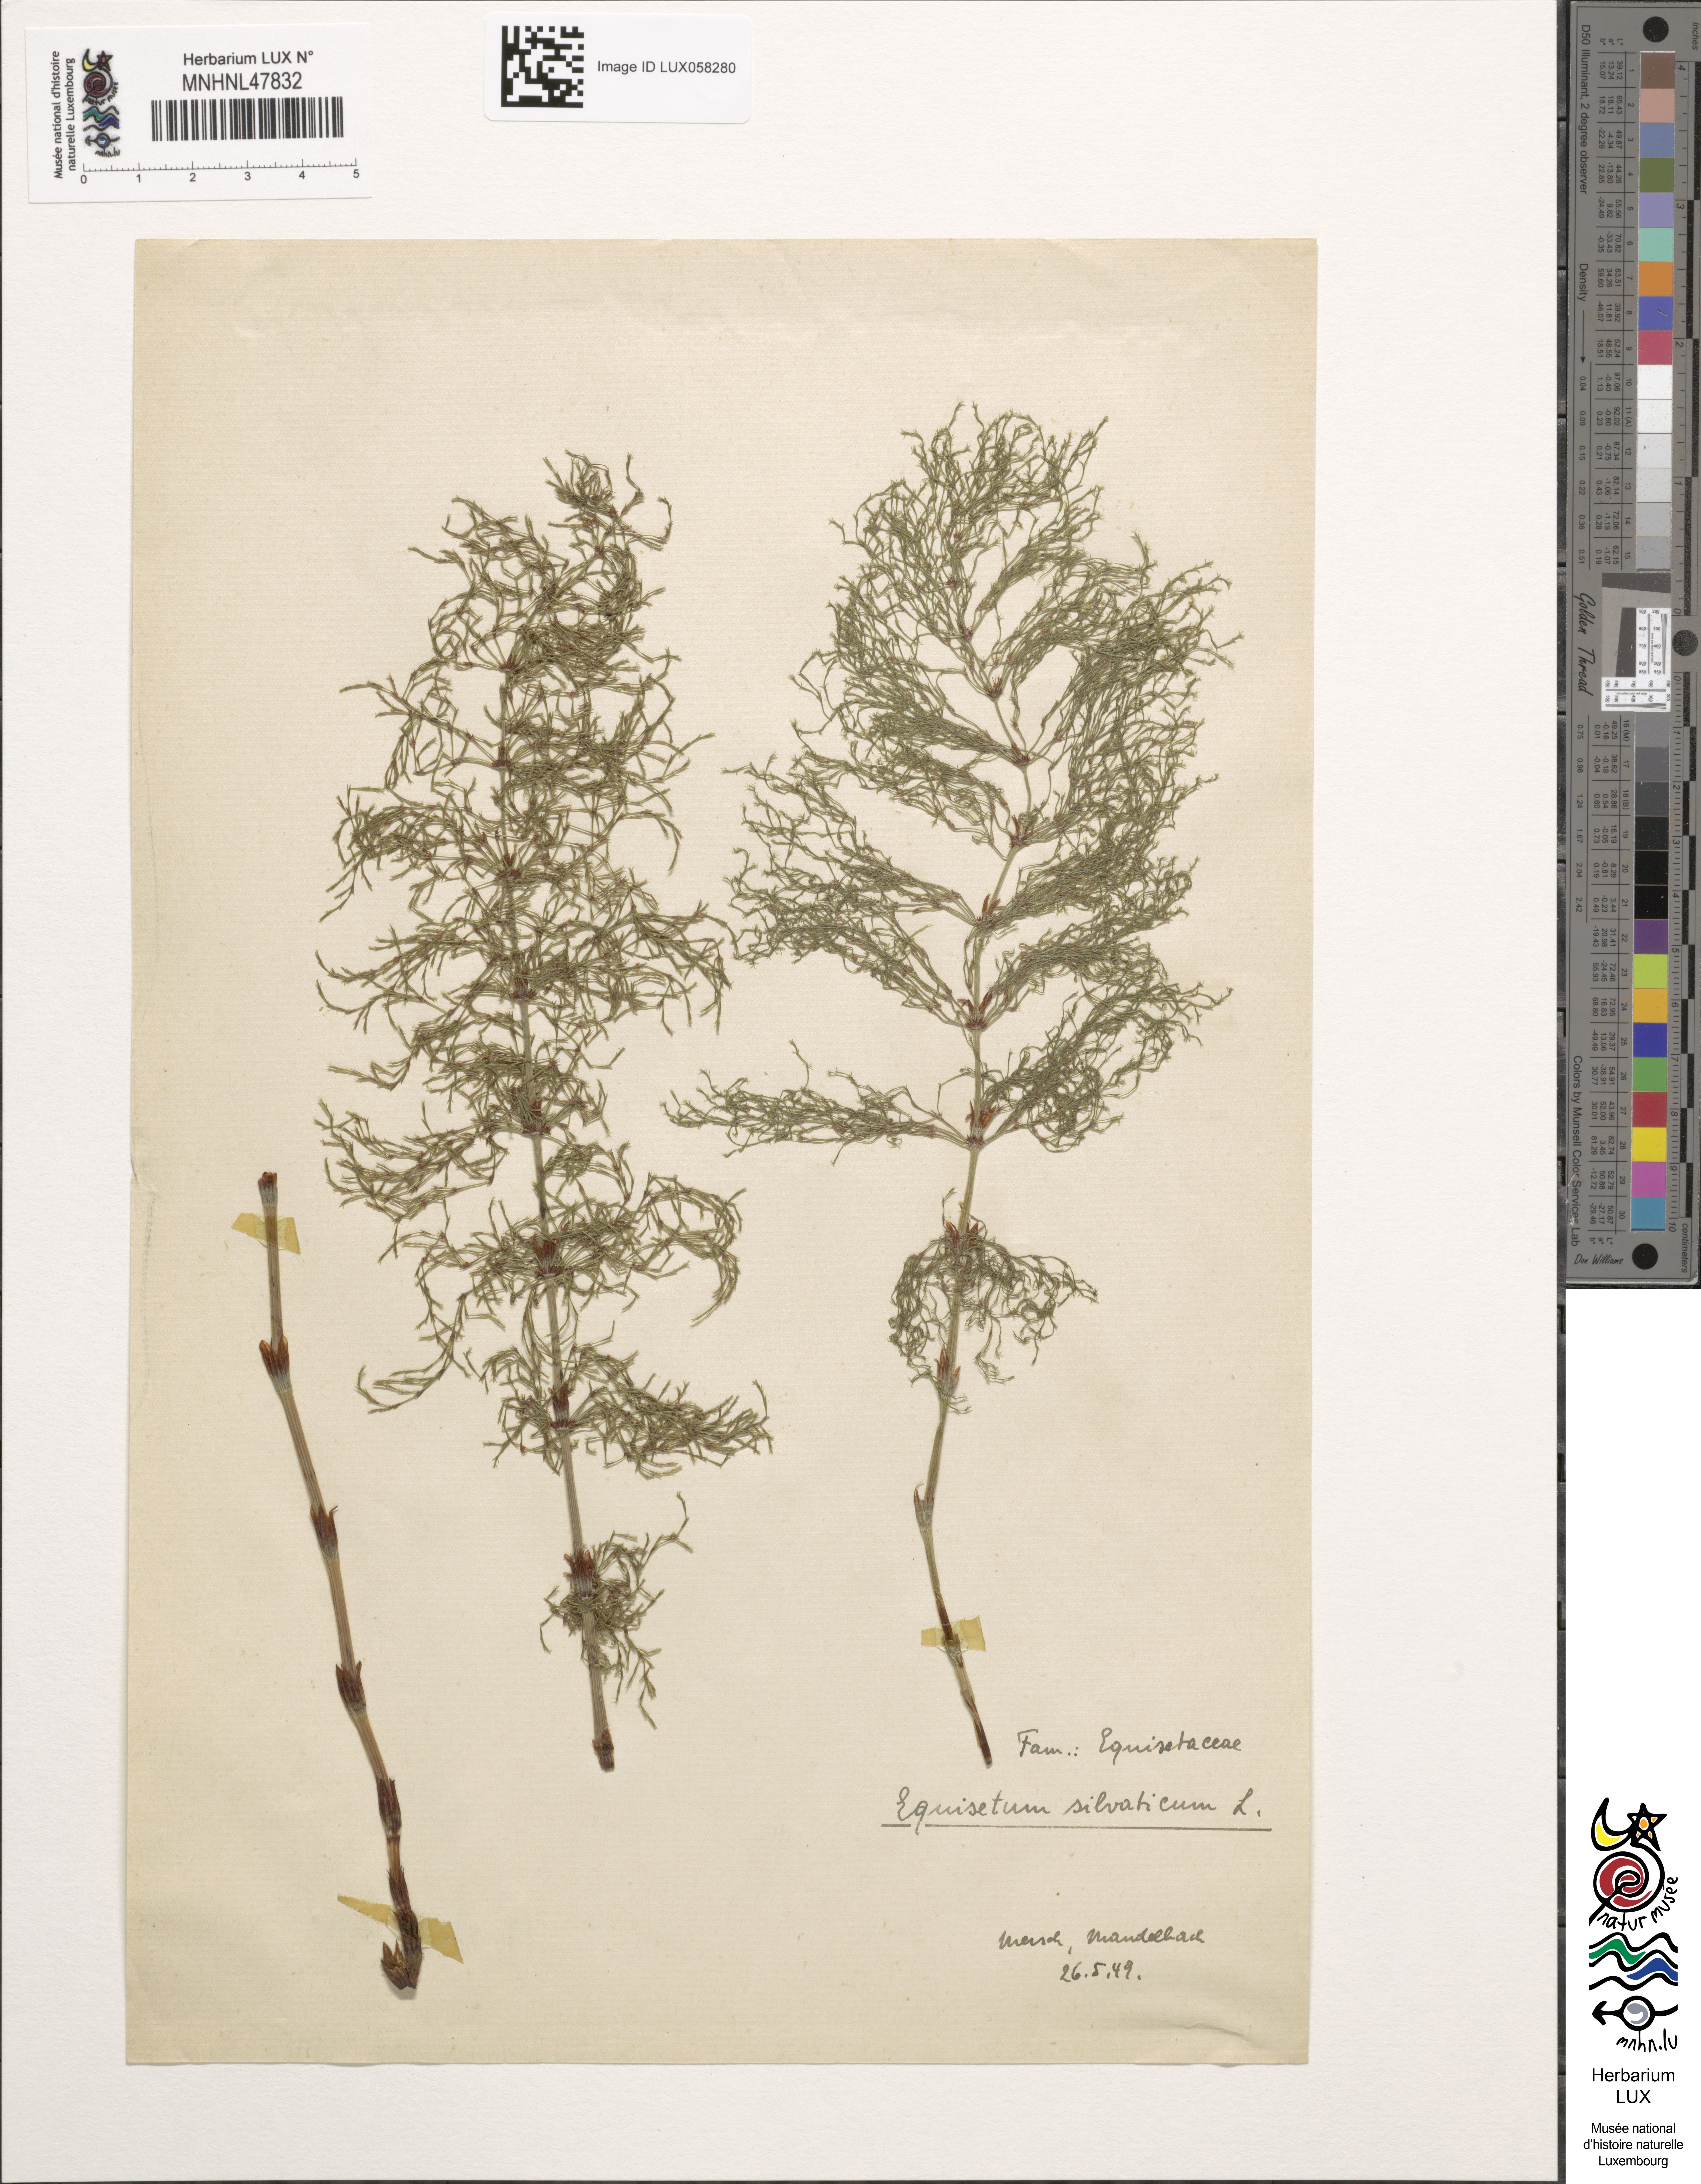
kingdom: Plantae
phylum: Tracheophyta
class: Polypodiopsida
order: Equisetales
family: Equisetaceae
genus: Equisetum
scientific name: Equisetum sylvaticum
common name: Wood horsetail
